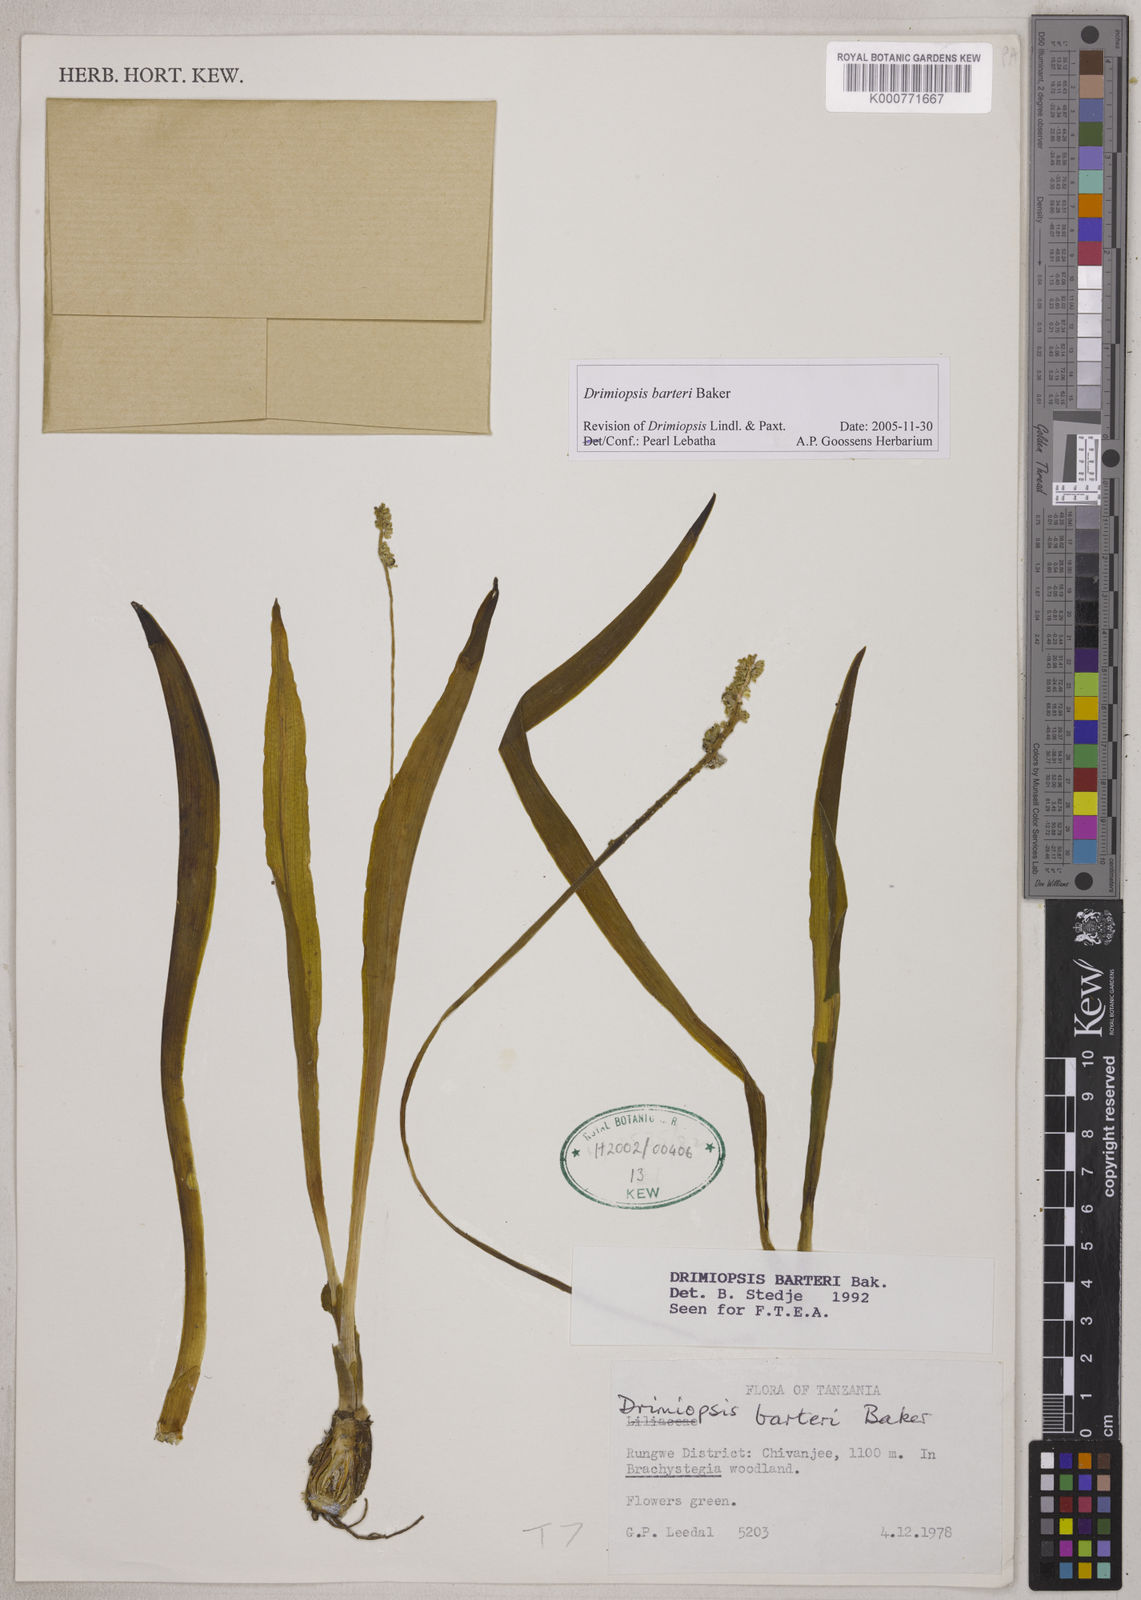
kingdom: Plantae
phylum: Tracheophyta
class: Liliopsida
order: Asparagales
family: Asparagaceae
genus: Drimiopsis
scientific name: Drimiopsis barteri
